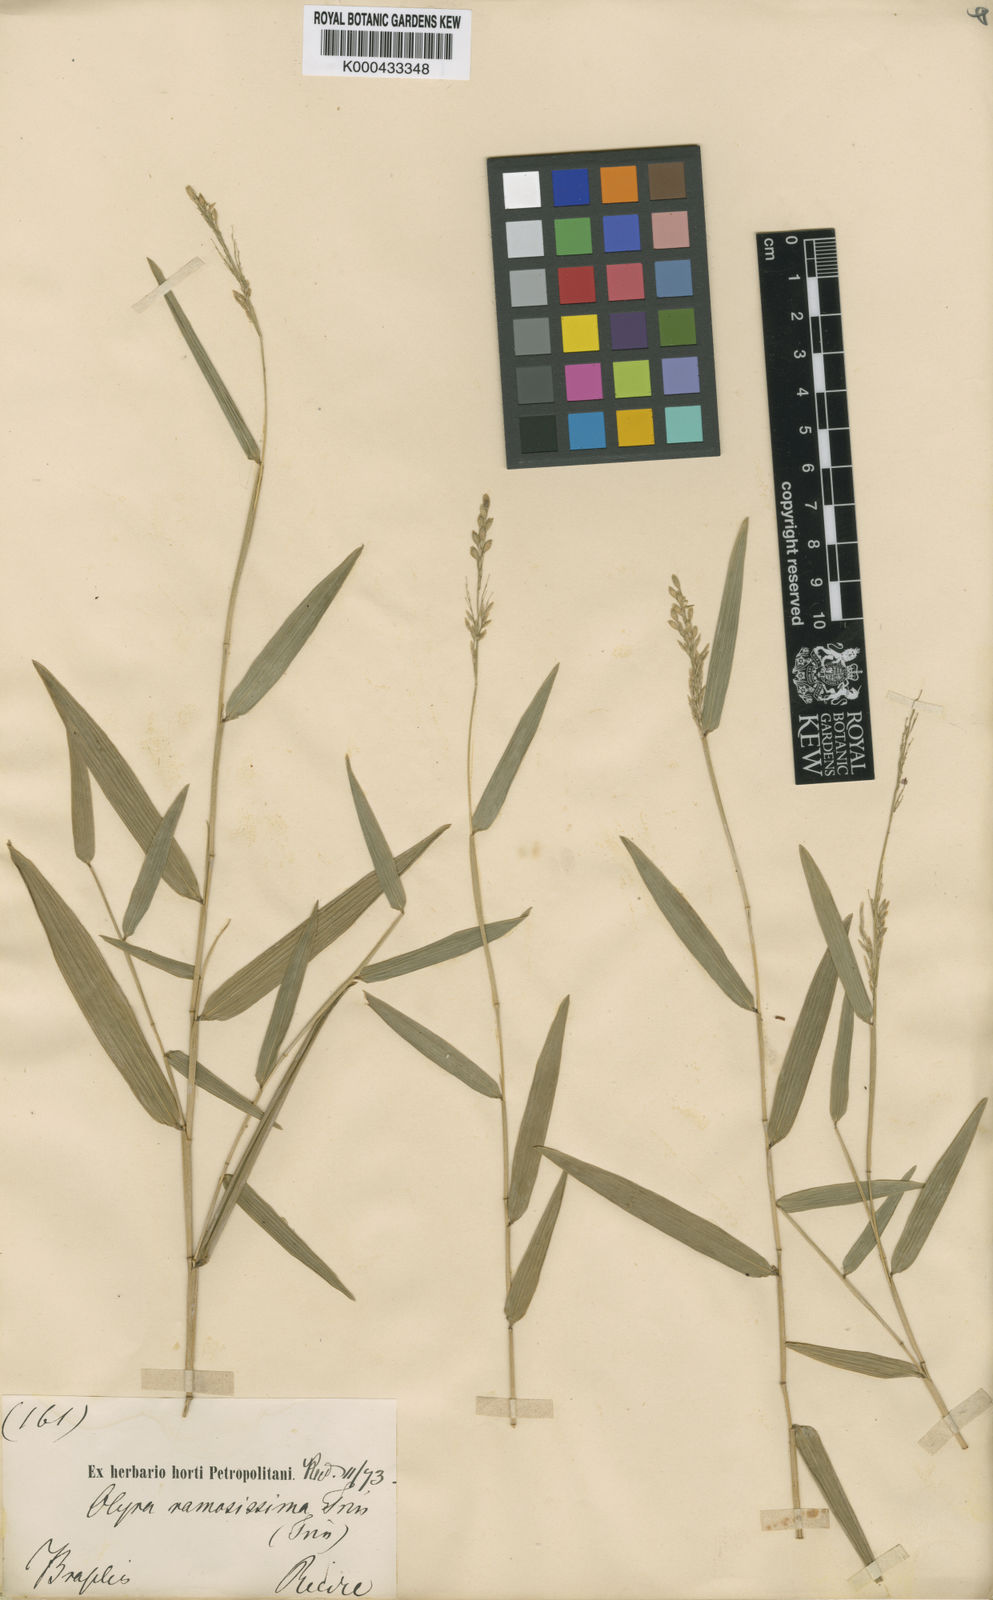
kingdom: Plantae
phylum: Tracheophyta
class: Liliopsida
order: Poales
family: Poaceae
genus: Parodiolyra
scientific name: Parodiolyra ramosissima
